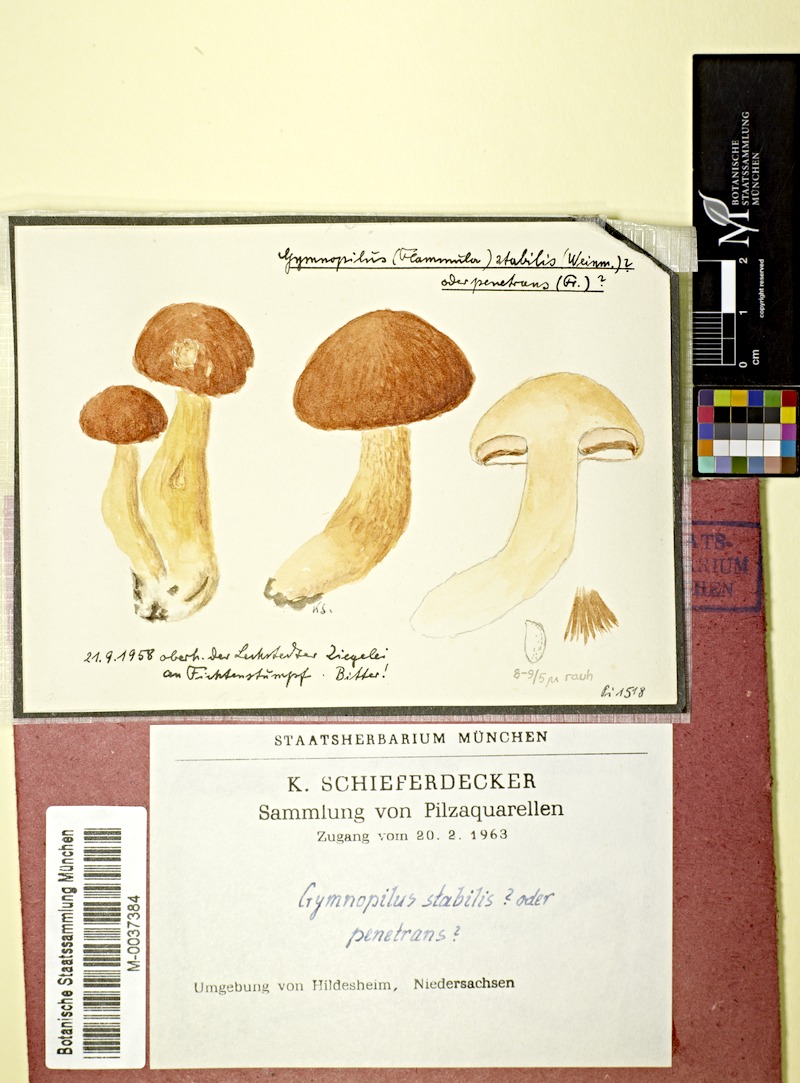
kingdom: Fungi
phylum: Basidiomycota
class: Agaricomycetes
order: Agaricales
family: Hymenogastraceae
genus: Gymnopilus
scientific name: Gymnopilus stabilis
